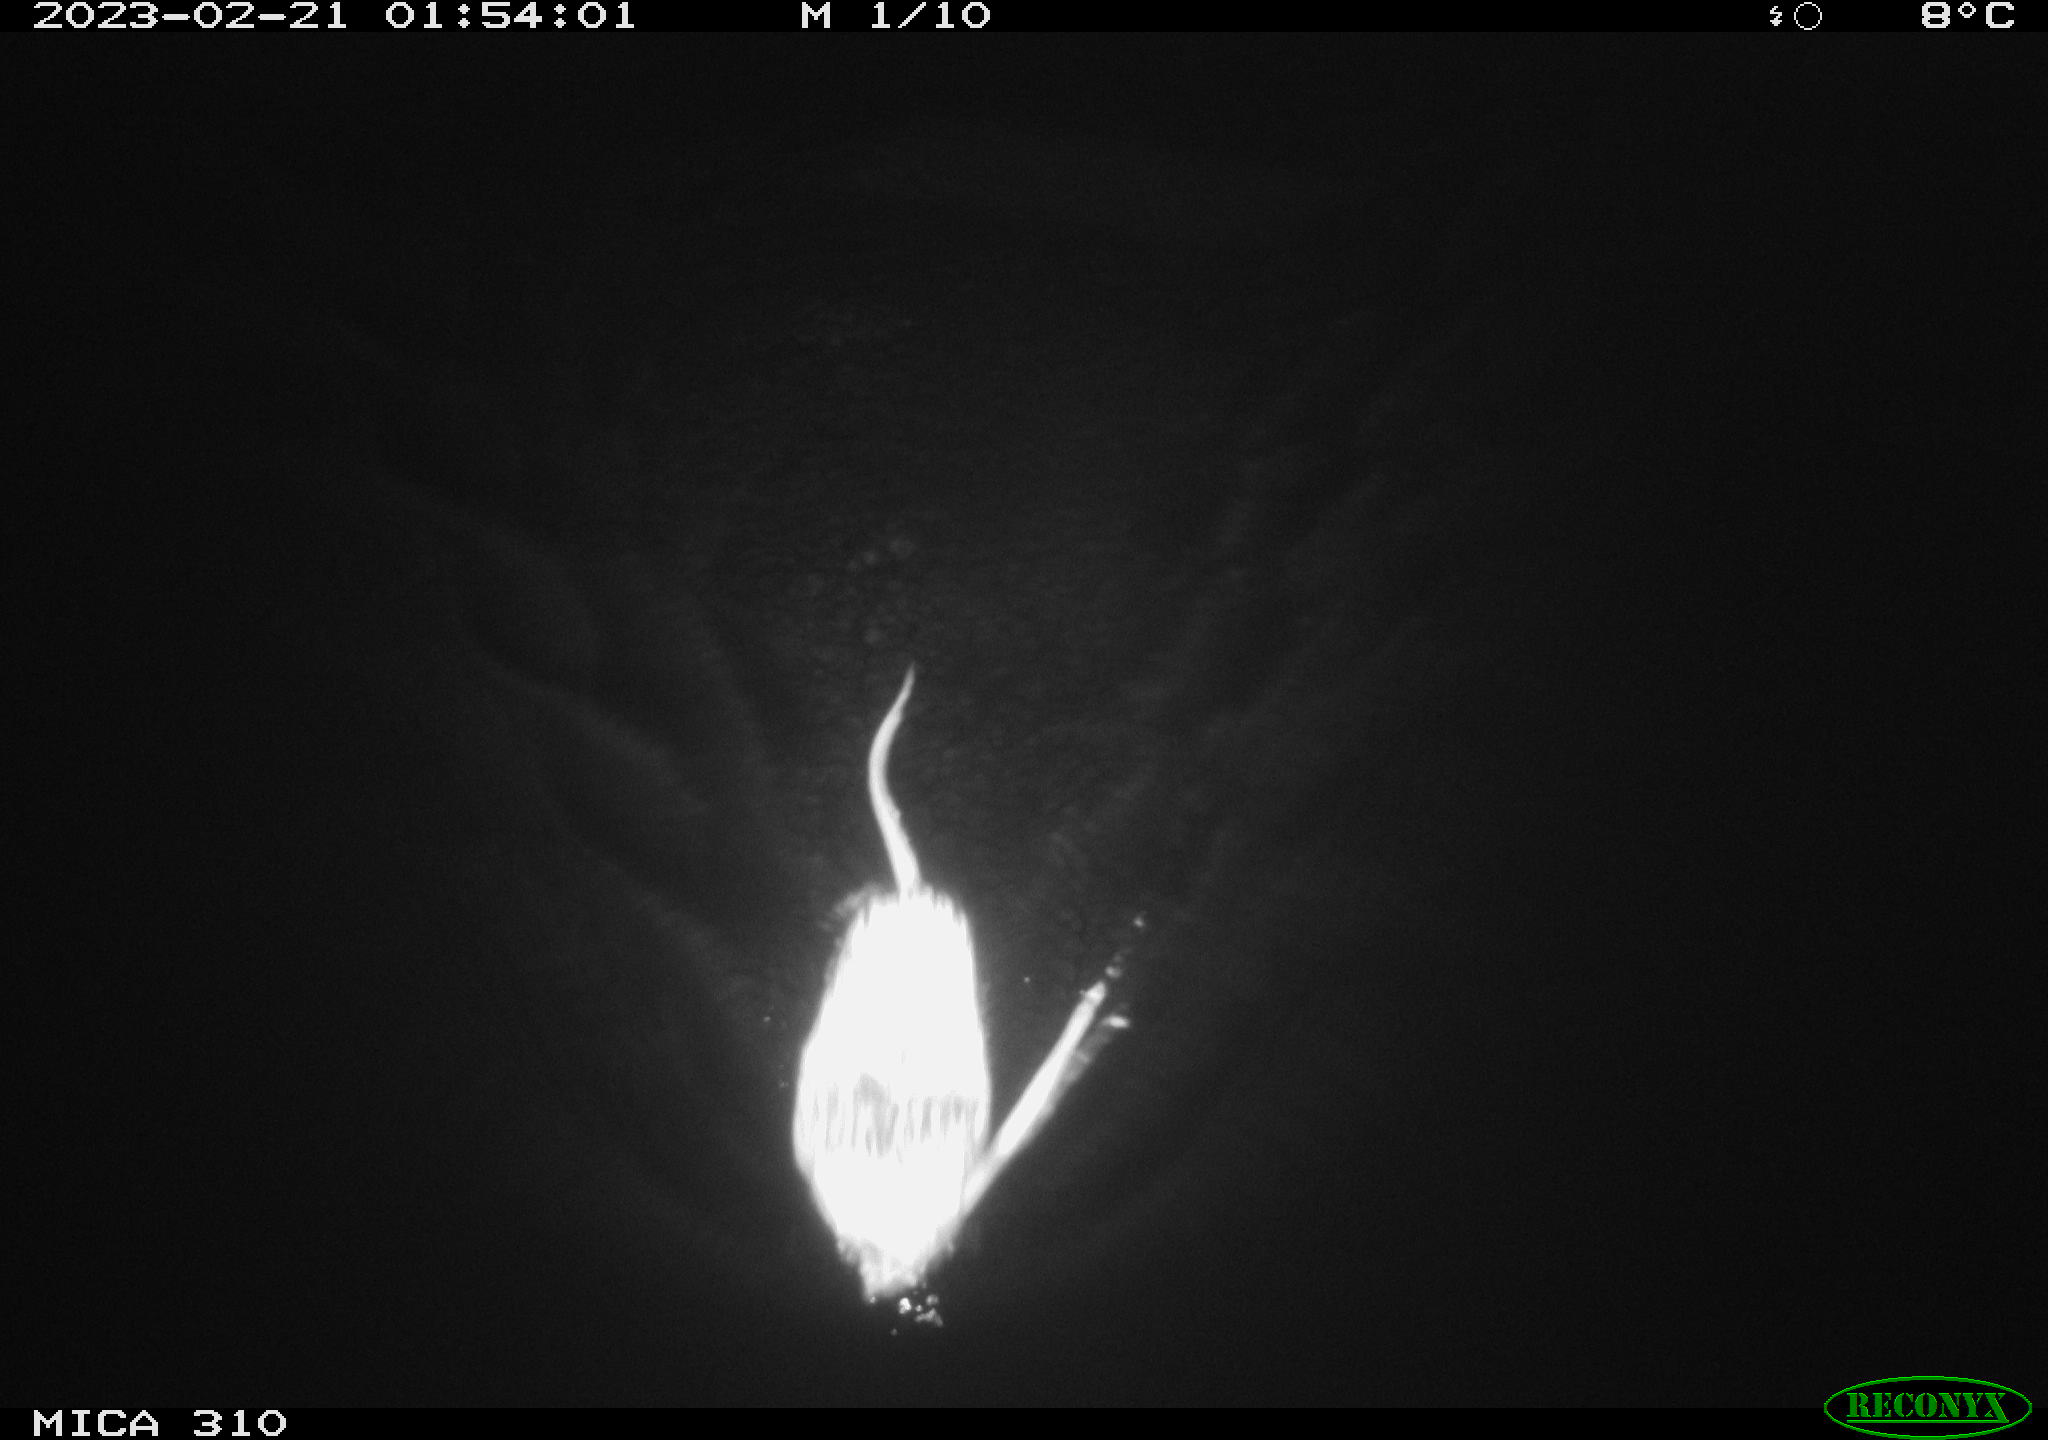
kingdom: Animalia
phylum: Chordata
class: Mammalia
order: Rodentia
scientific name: Rodentia
